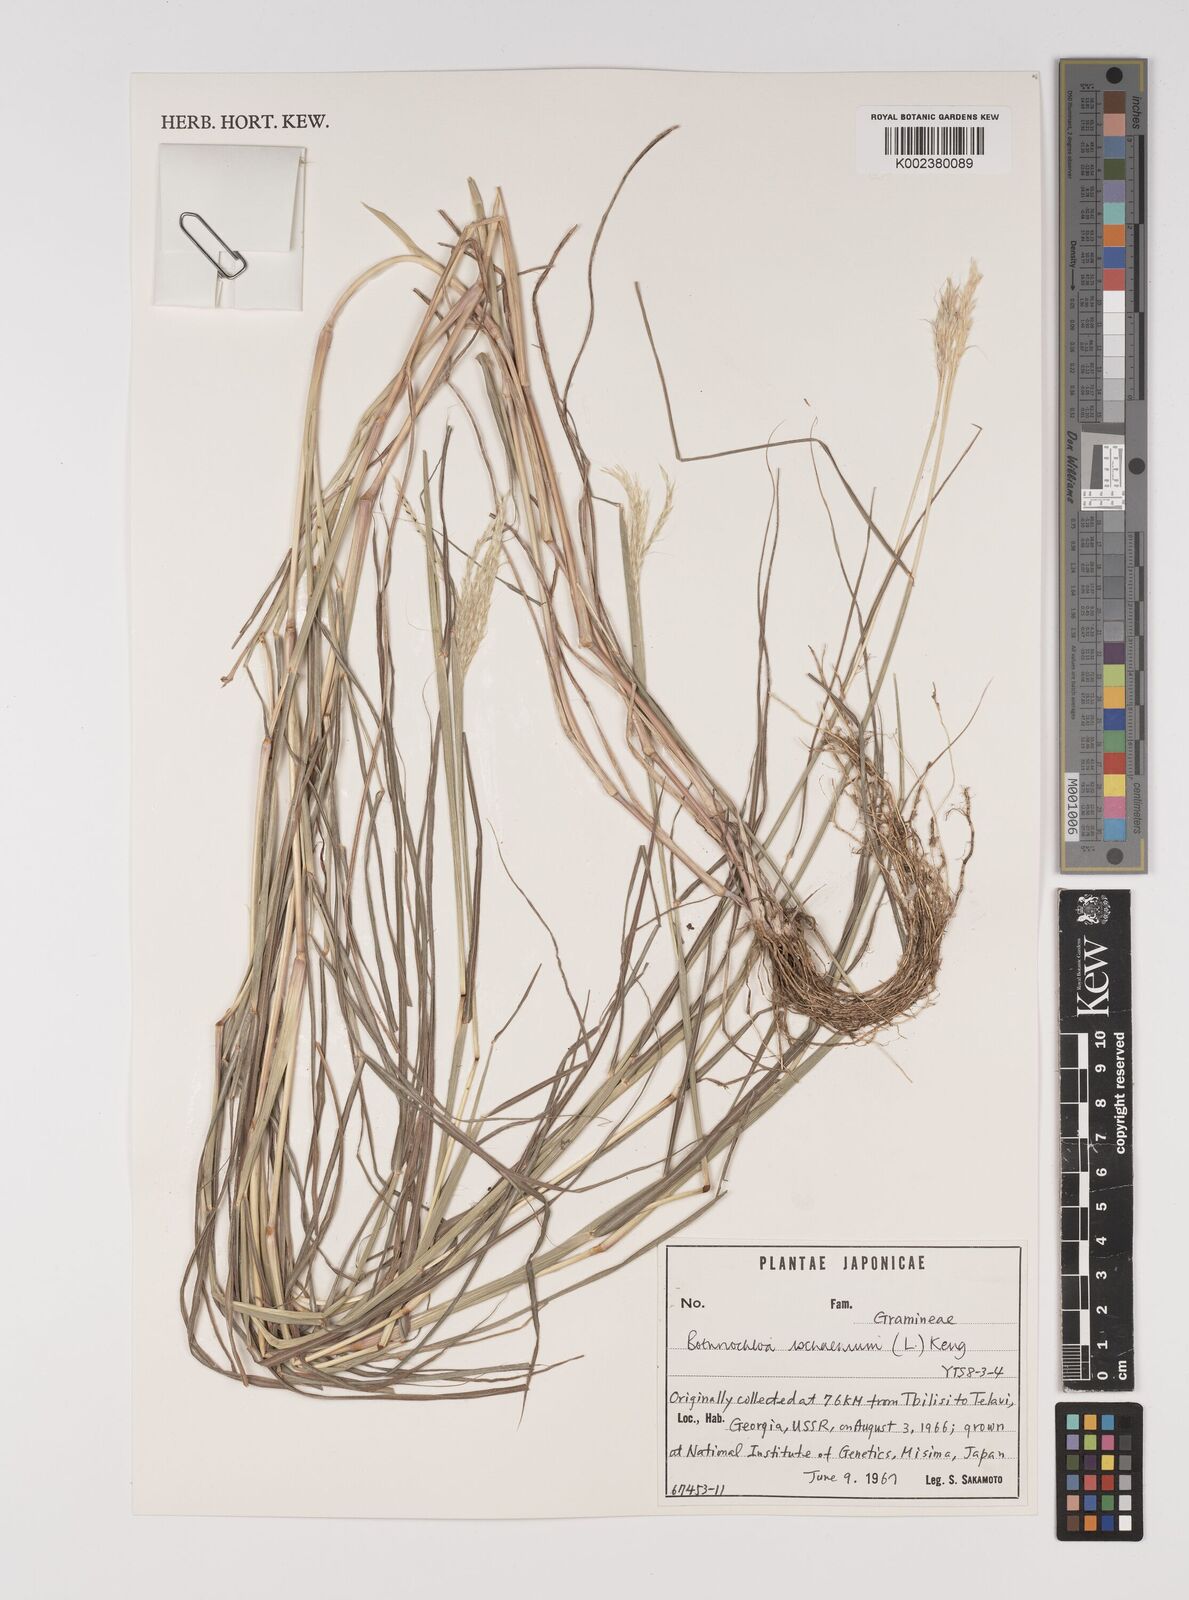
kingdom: Plantae
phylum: Tracheophyta
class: Liliopsida
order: Poales
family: Poaceae
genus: Bothriochloa
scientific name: Bothriochloa ischaemum
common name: Yellow bluestem
